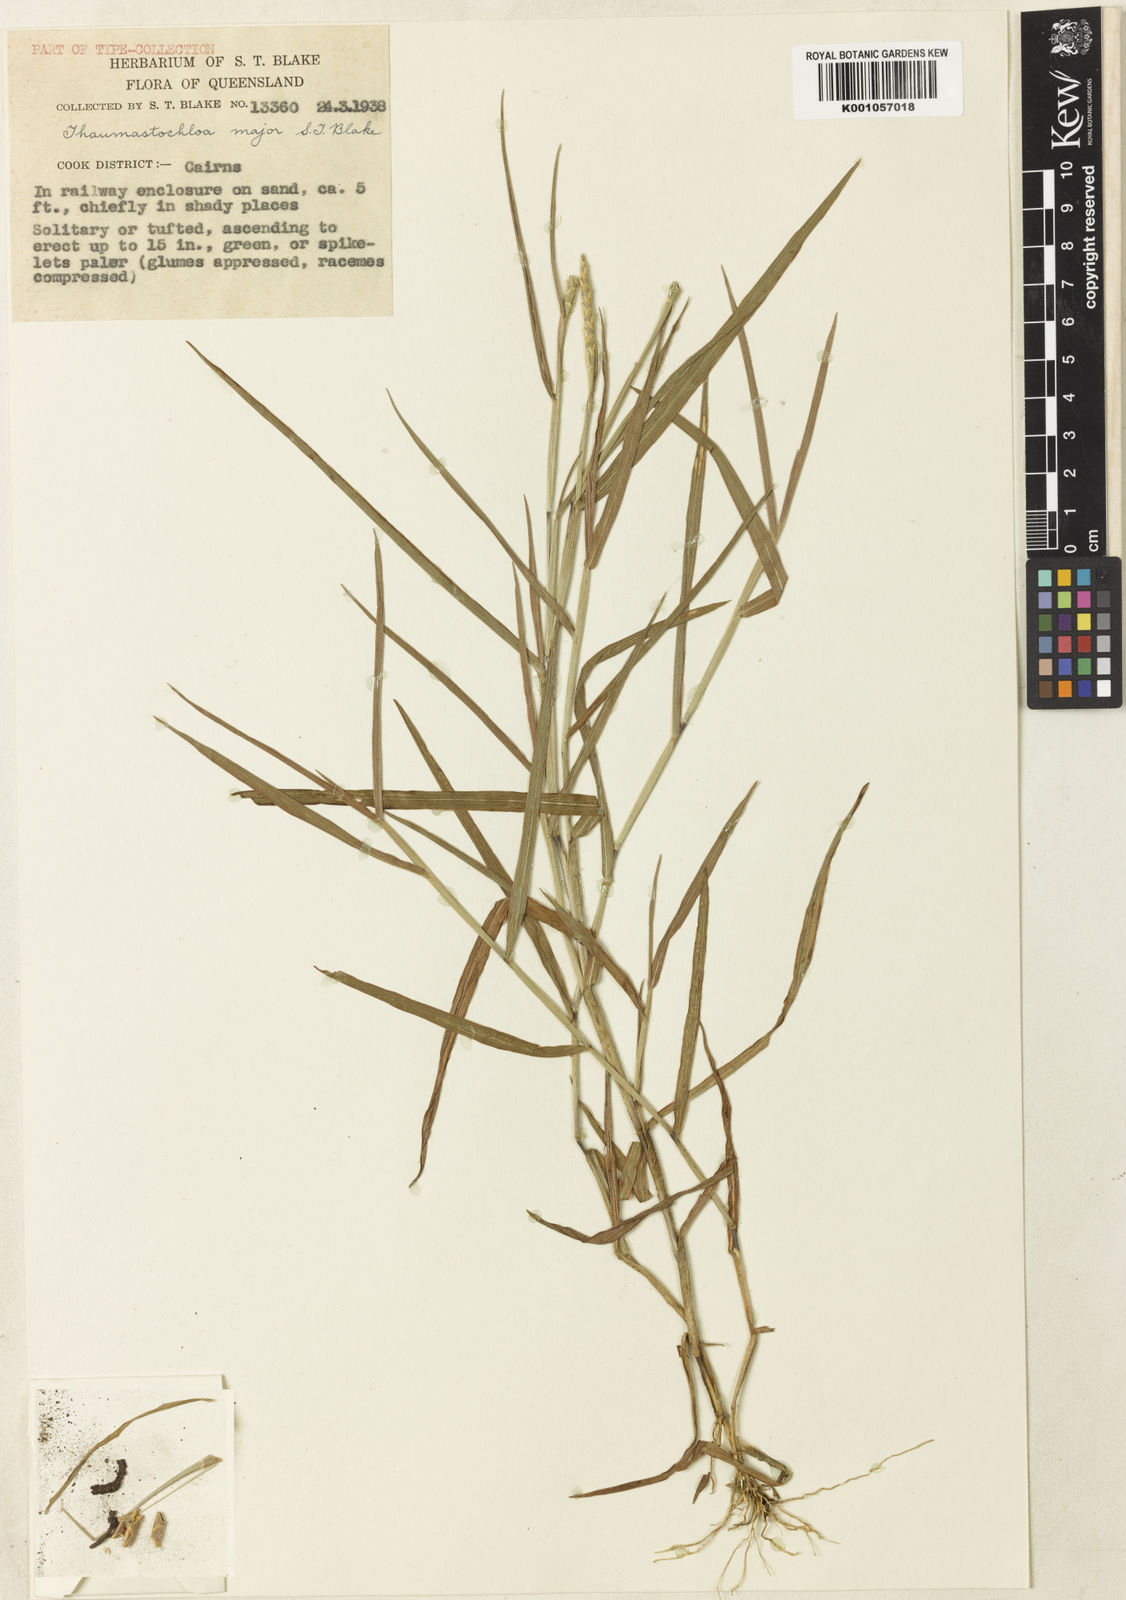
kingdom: Plantae
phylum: Tracheophyta
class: Liliopsida
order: Poales
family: Poaceae
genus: Thaumastochloa
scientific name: Thaumastochloa major
